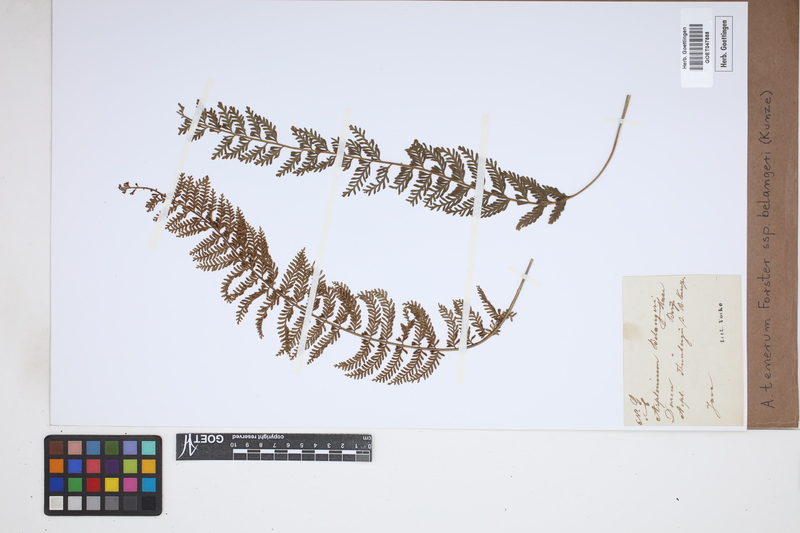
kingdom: Plantae
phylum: Tracheophyta
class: Polypodiopsida
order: Polypodiales
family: Aspleniaceae
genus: Asplenium
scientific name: Asplenium tenerum
